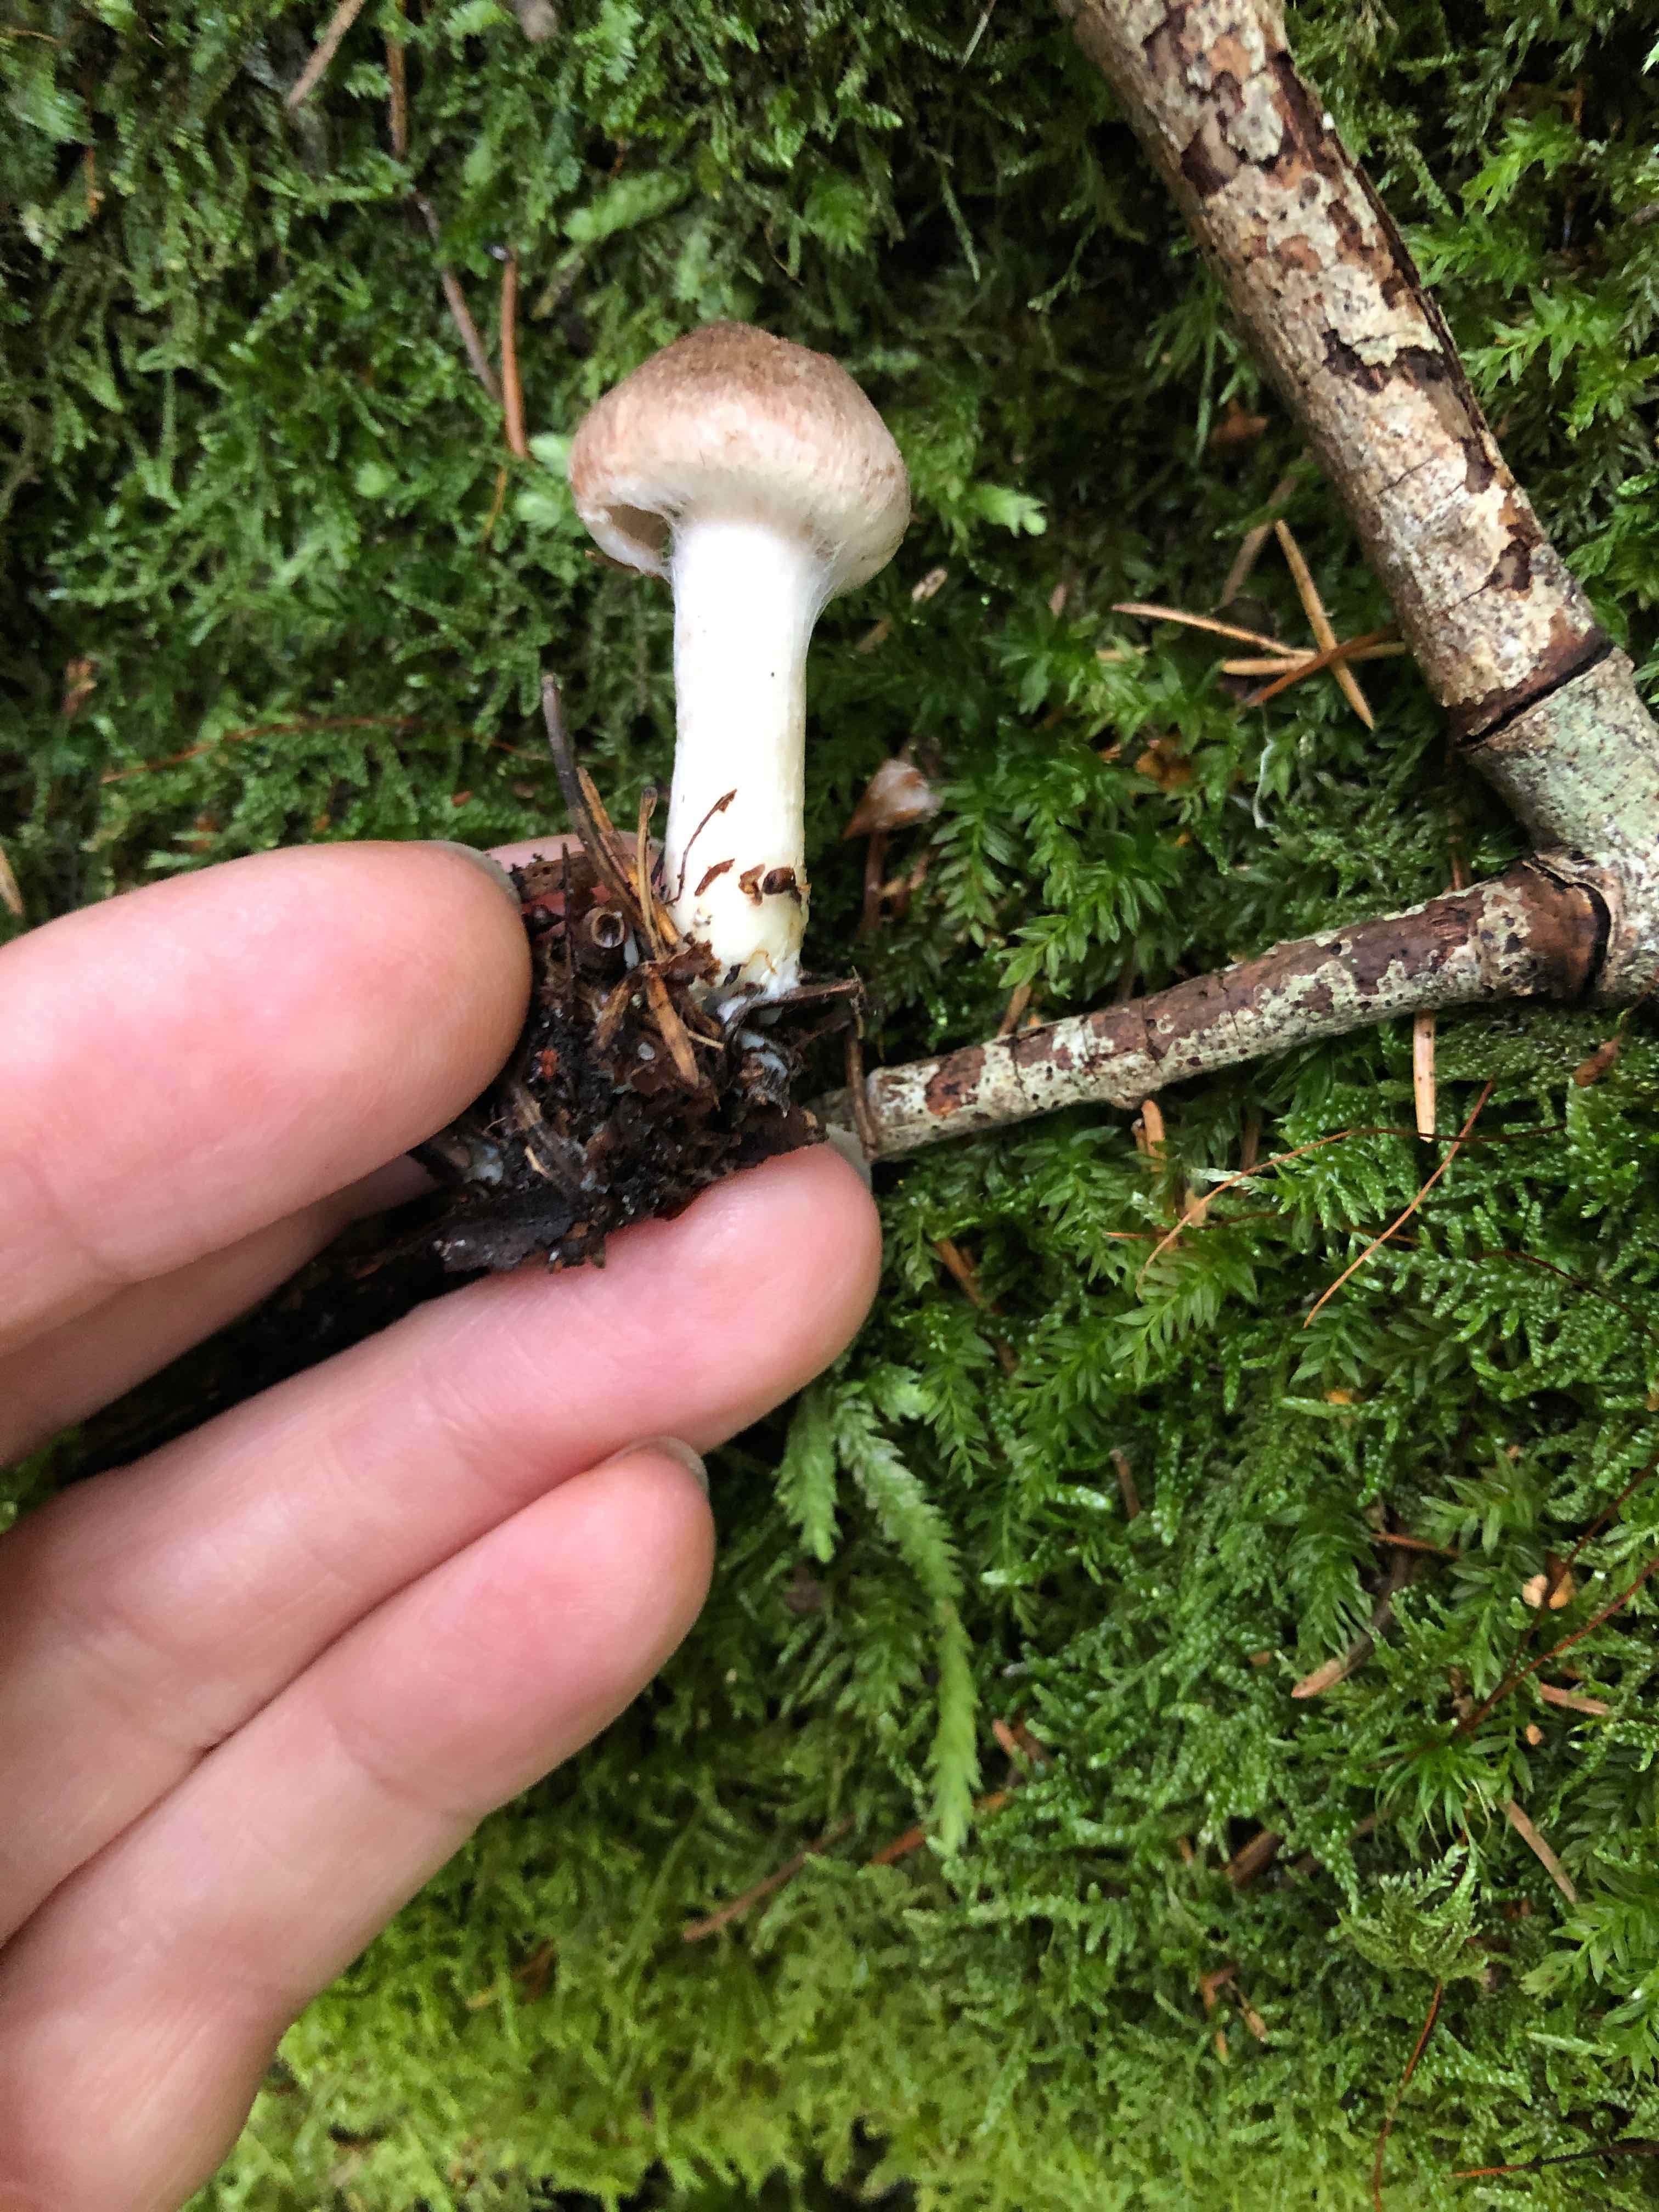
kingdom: Fungi
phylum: Basidiomycota
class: Agaricomycetes
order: Agaricales
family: Inocybaceae
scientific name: Inocybaceae
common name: trævlhatfamilien
